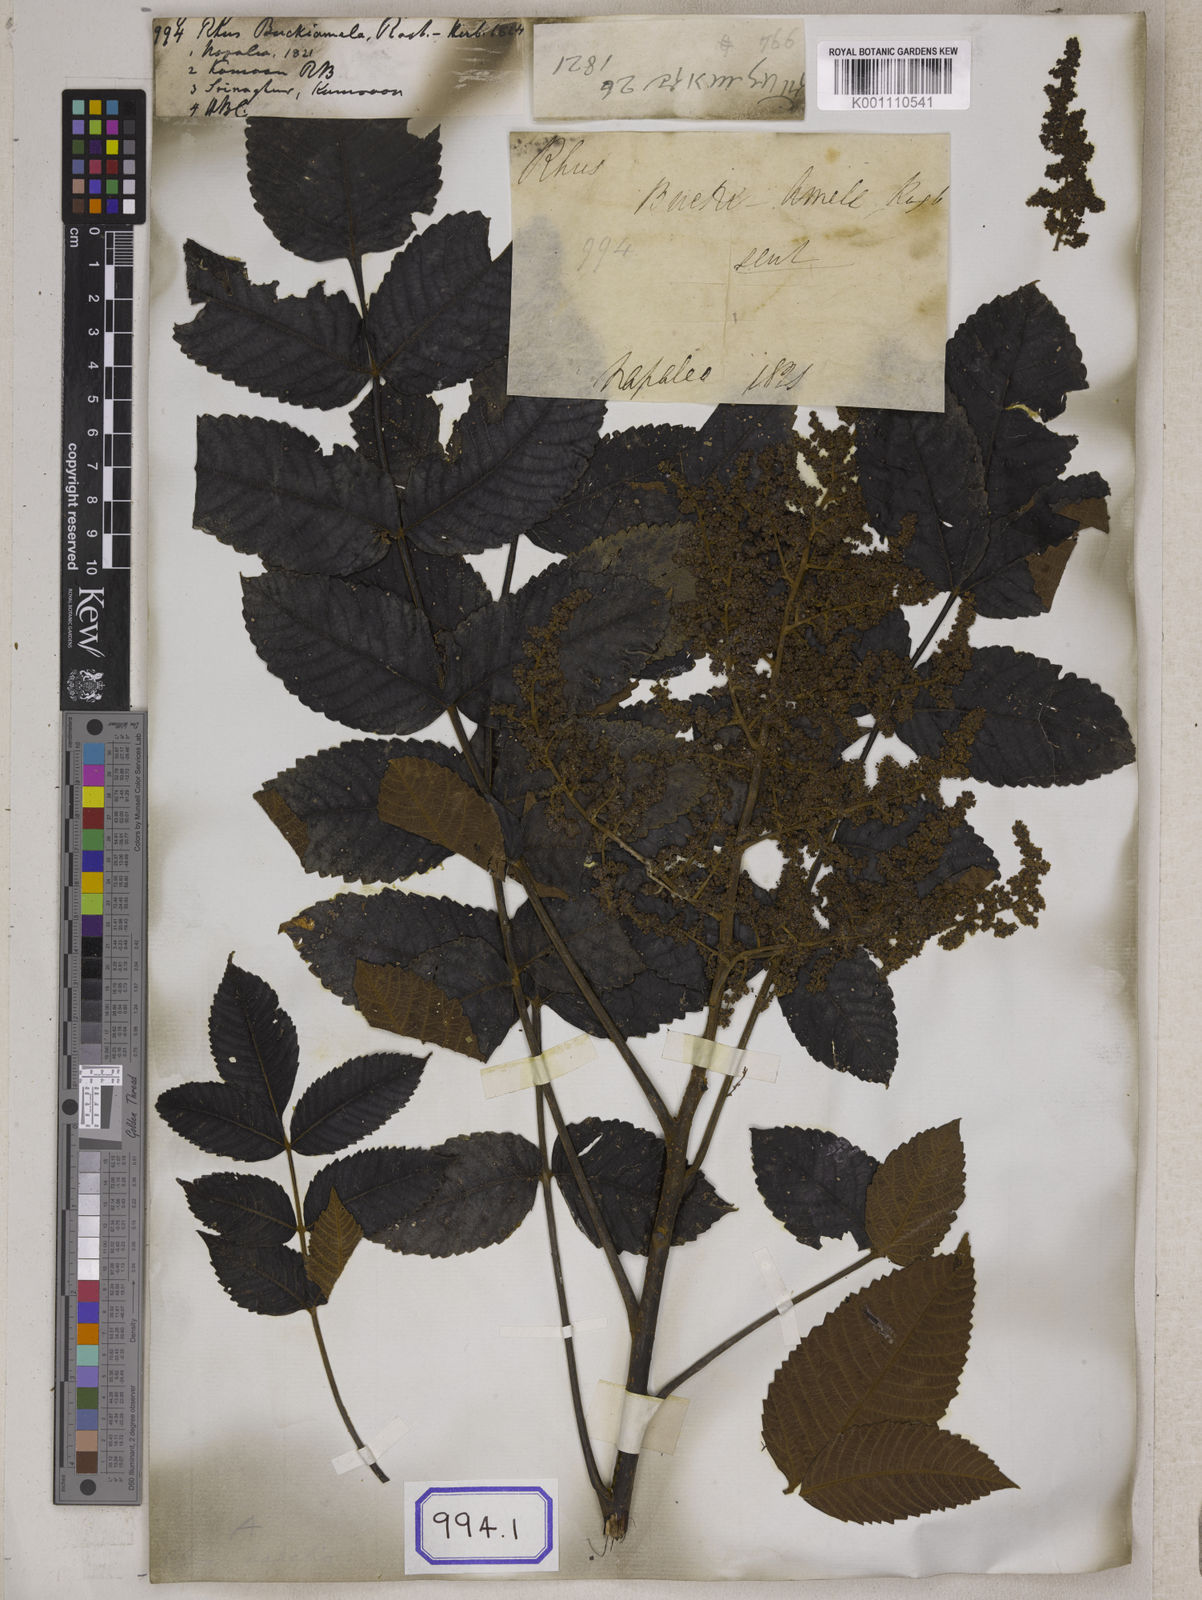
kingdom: Plantae
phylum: Tracheophyta
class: Magnoliopsida
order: Sapindales
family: Simaroubaceae
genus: Brucea
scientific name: Brucea javanica
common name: Macassar kernels
